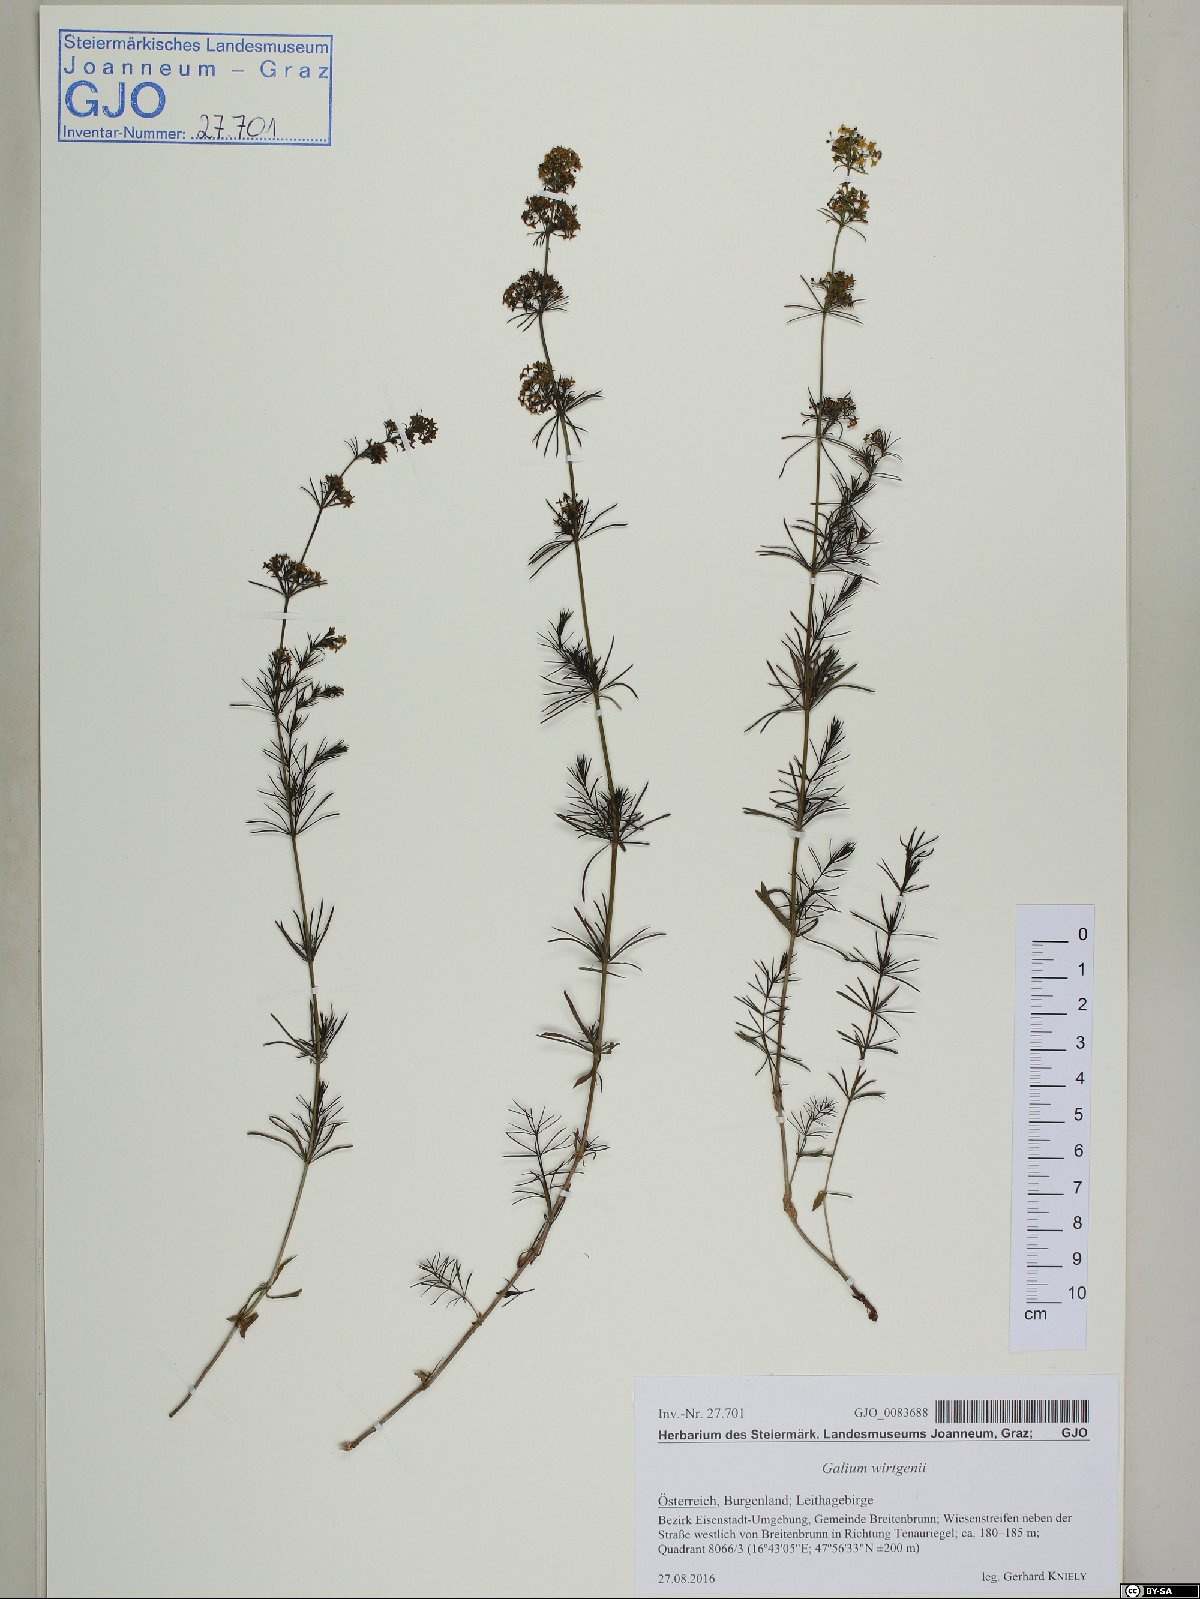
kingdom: Plantae
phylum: Tracheophyta
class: Magnoliopsida
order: Gentianales
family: Rubiaceae
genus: Galium
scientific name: Galium verum
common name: Lady's bedstraw
